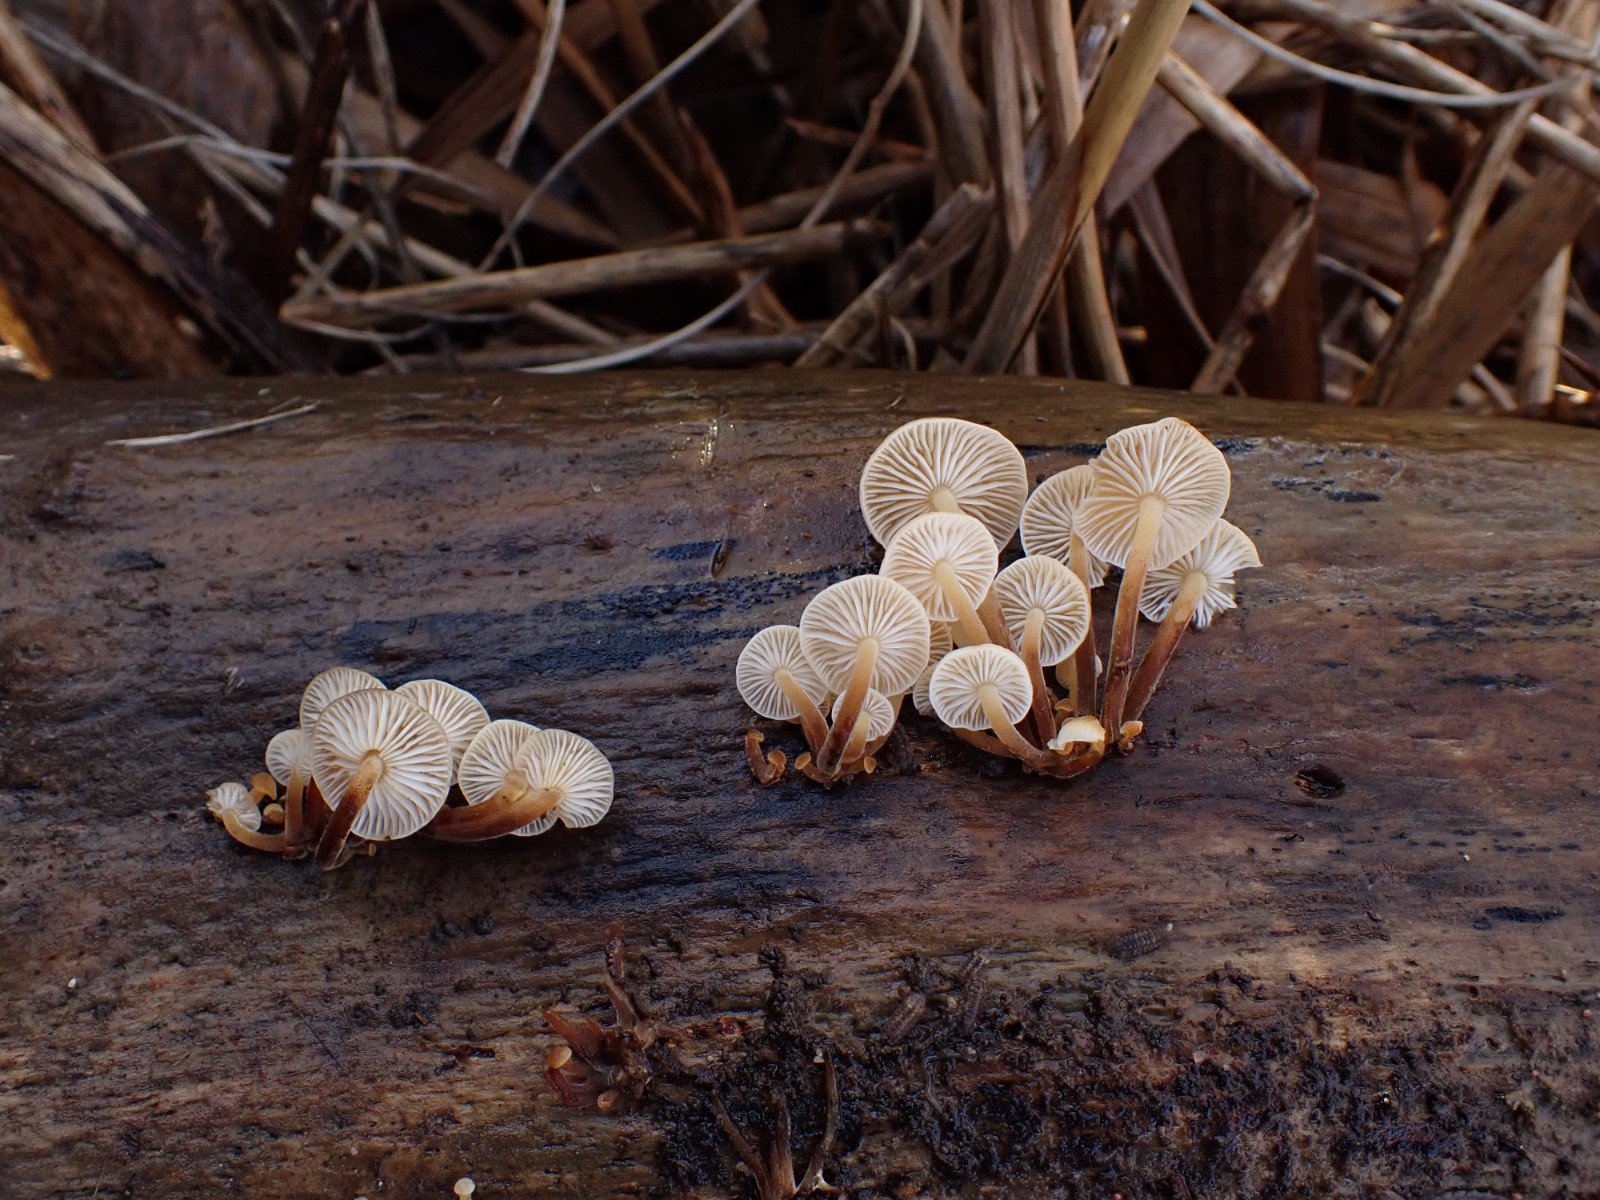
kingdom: Fungi
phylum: Basidiomycota
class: Agaricomycetes
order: Agaricales
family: Physalacriaceae
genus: Flammulina
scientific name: Flammulina
